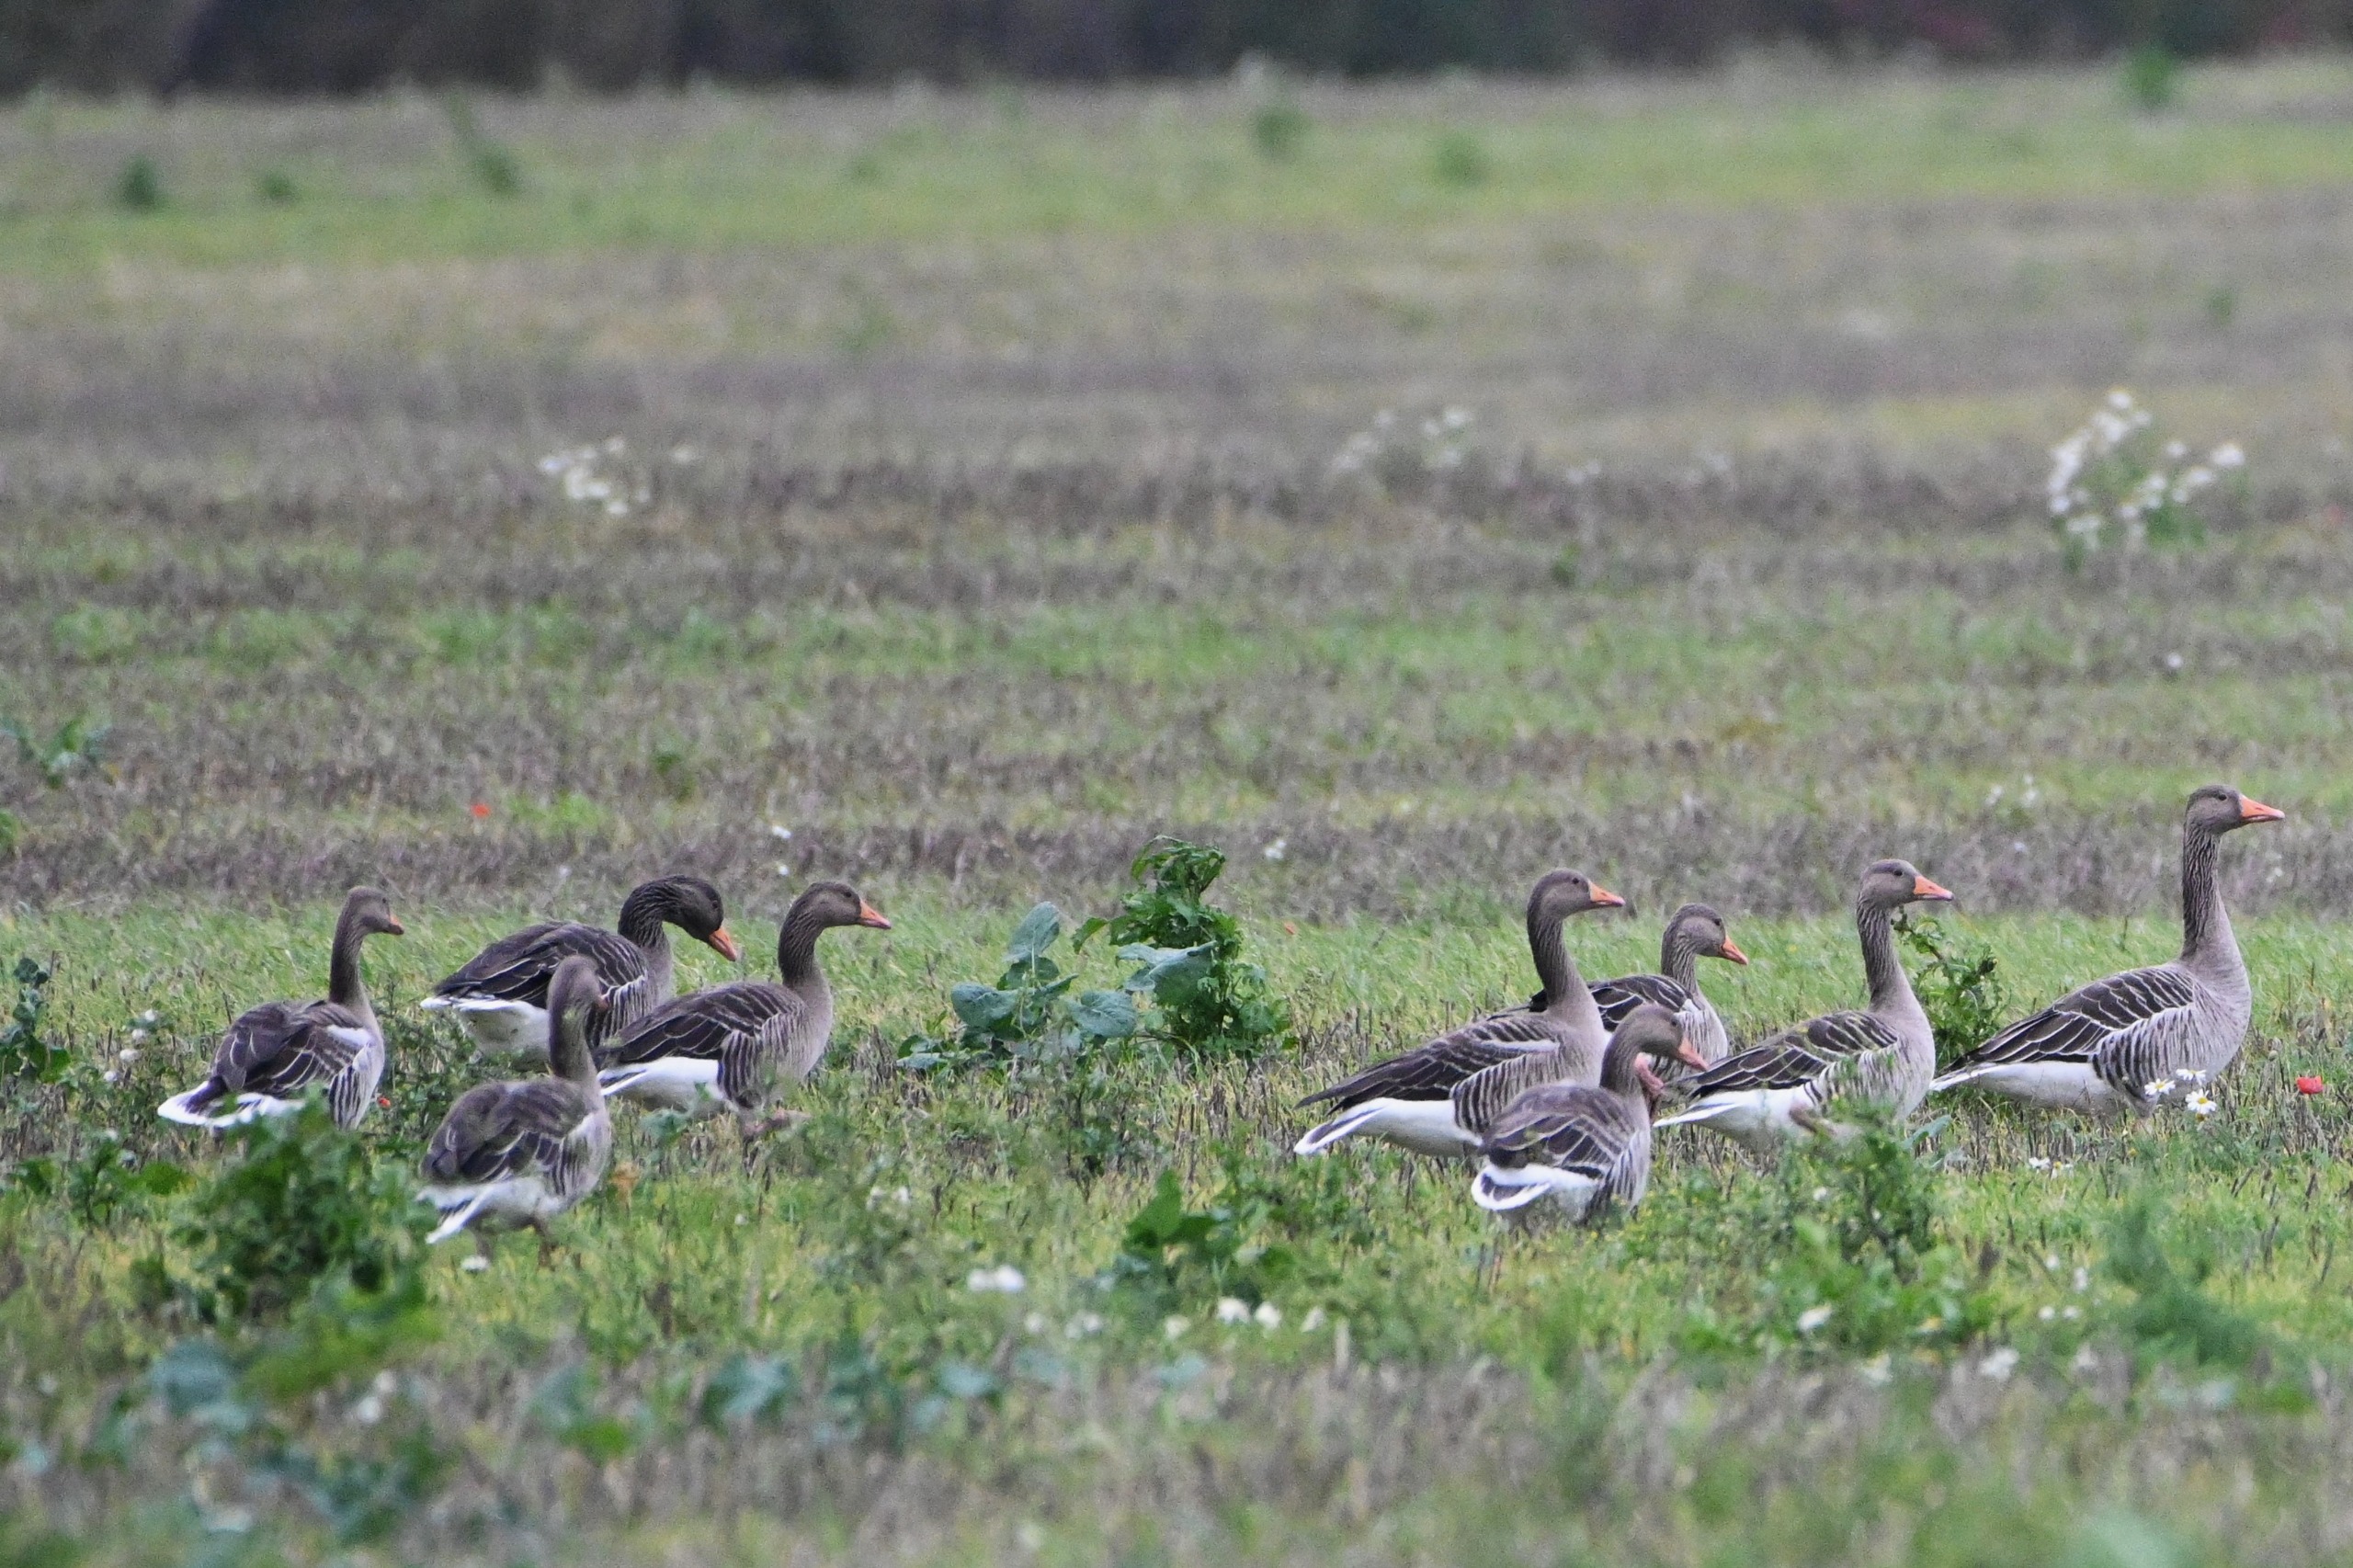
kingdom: Animalia
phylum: Chordata
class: Aves
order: Anseriformes
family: Anatidae
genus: Anser
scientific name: Anser anser
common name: Grågås
